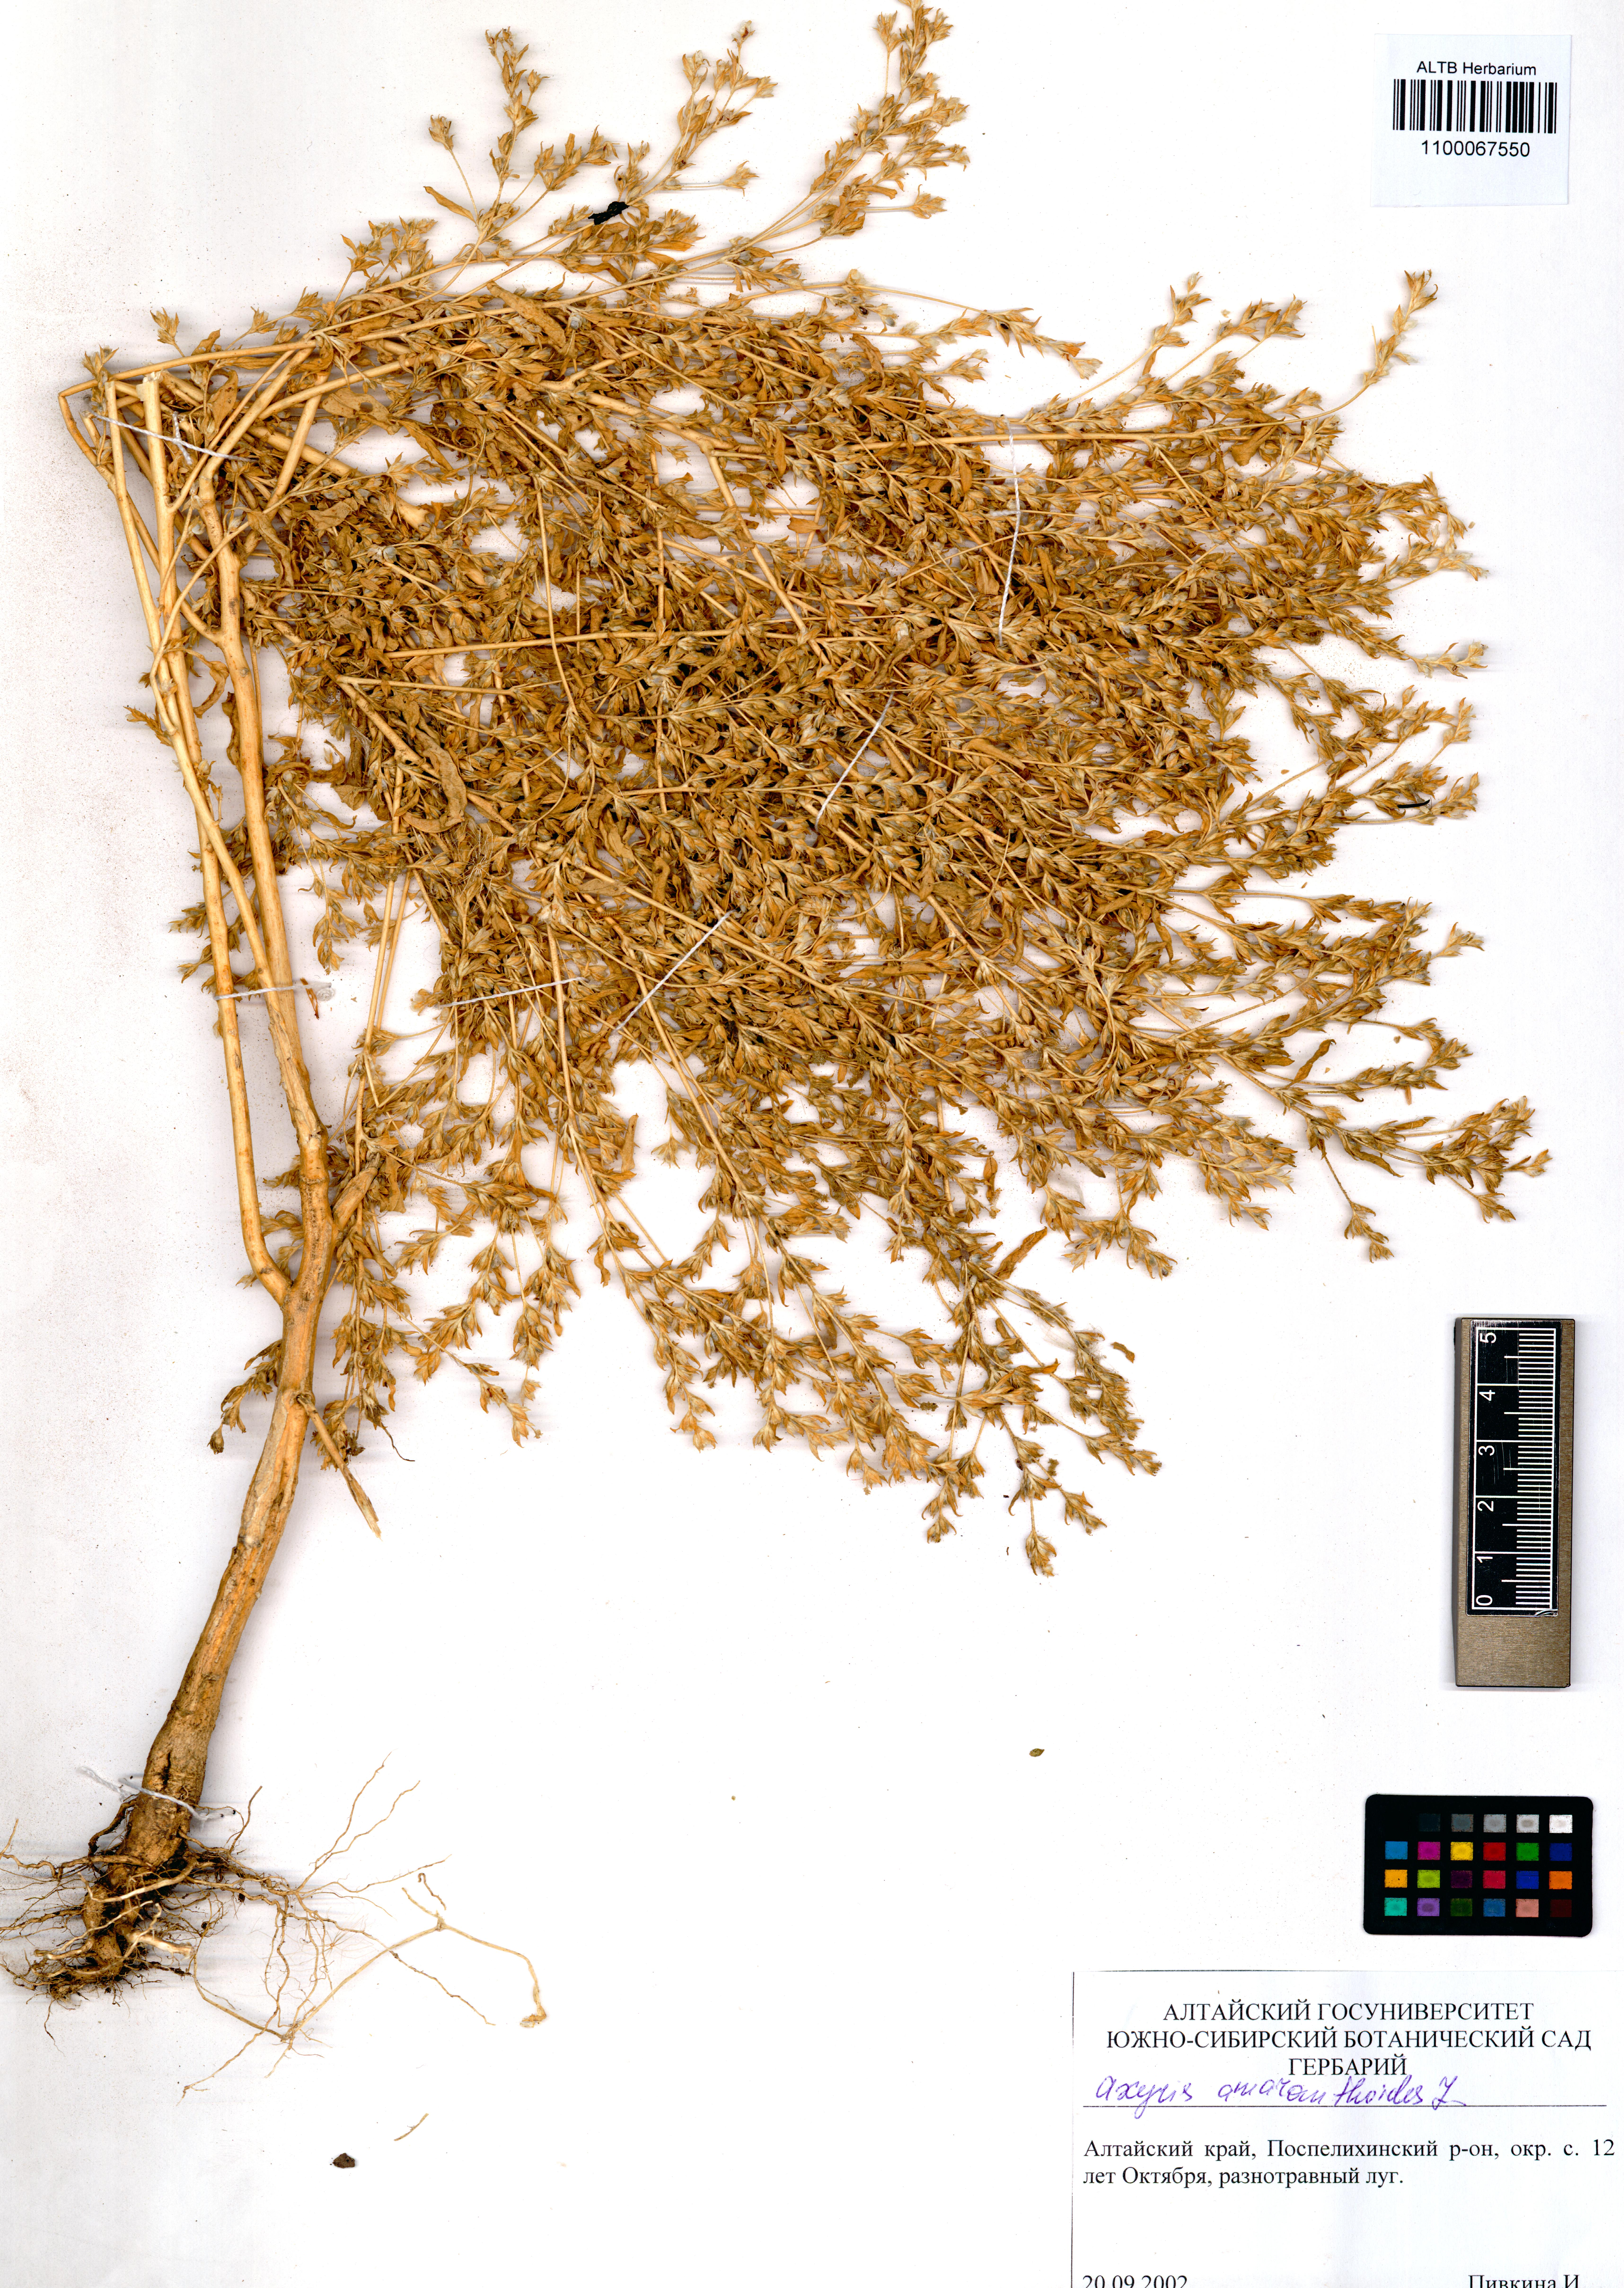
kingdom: Plantae
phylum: Tracheophyta
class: Magnoliopsida
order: Caryophyllales
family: Amaranthaceae
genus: Axyris
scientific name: Axyris amaranthoides
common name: Russian pigweed
